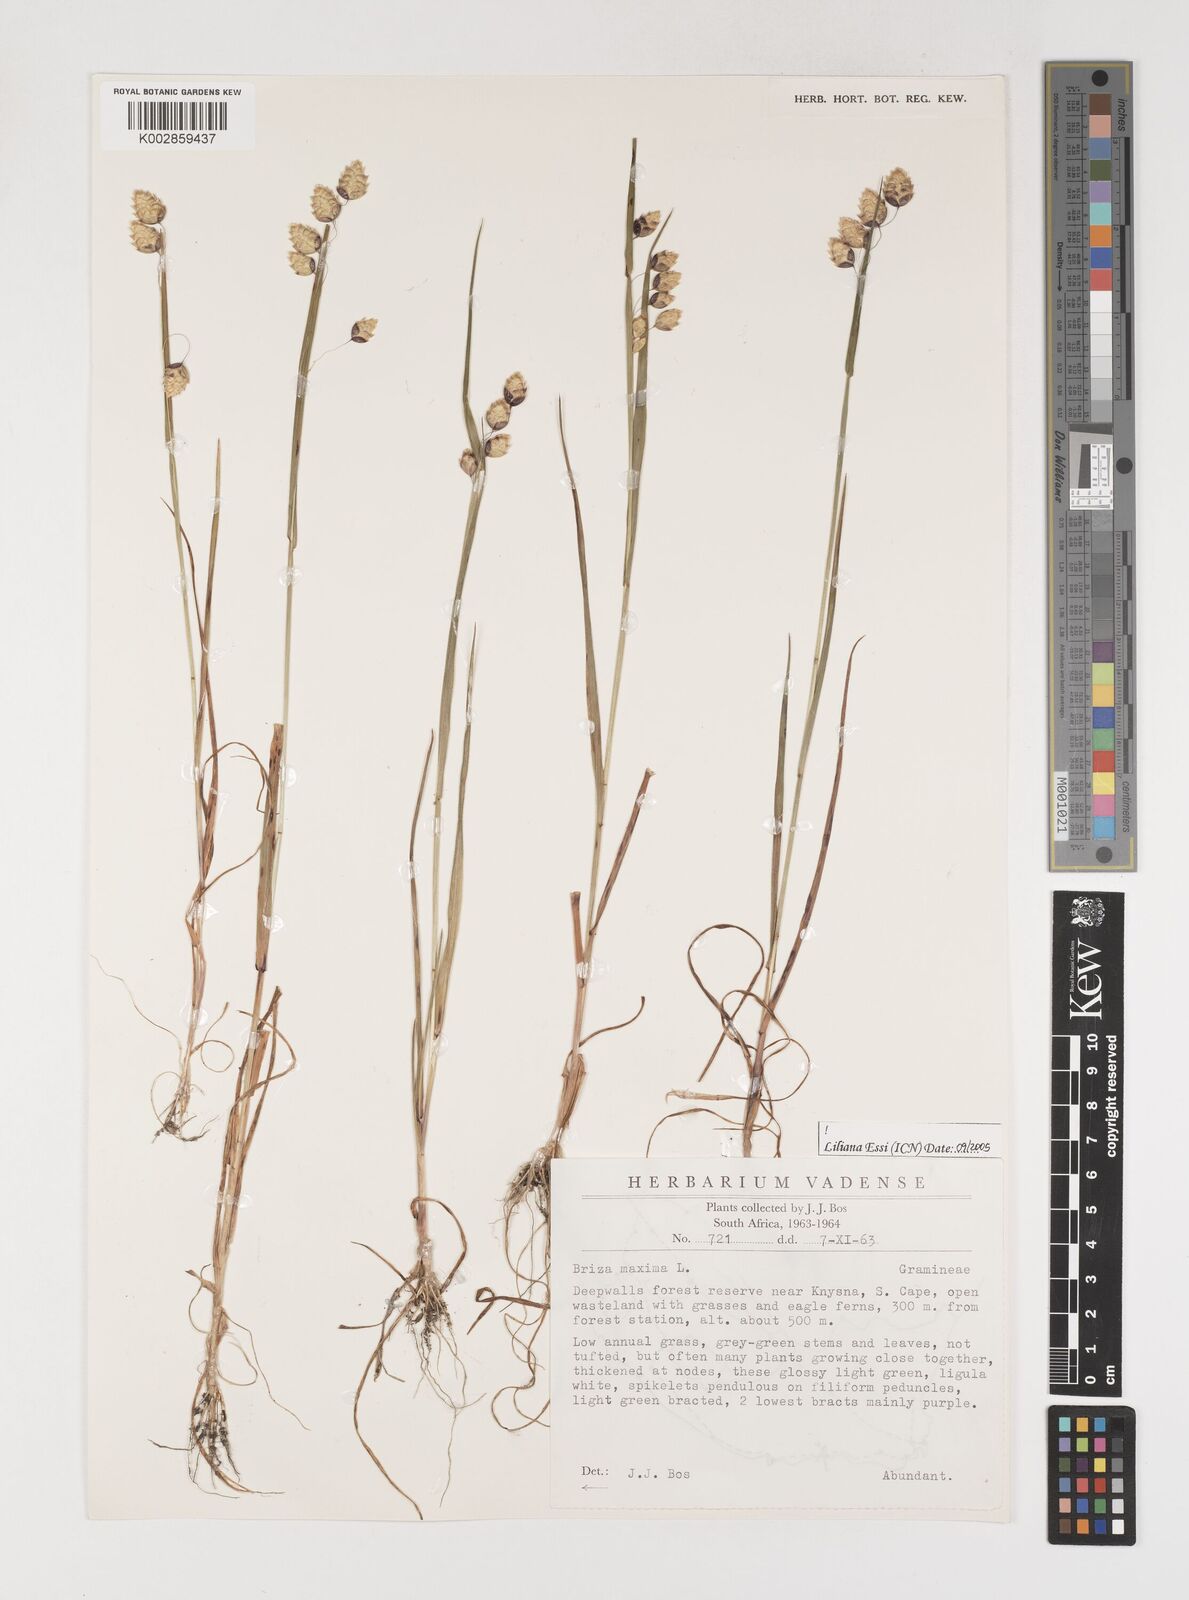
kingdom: Plantae
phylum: Tracheophyta
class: Liliopsida
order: Poales
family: Poaceae
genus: Briza
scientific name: Briza maxima
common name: Big quakinggrass
